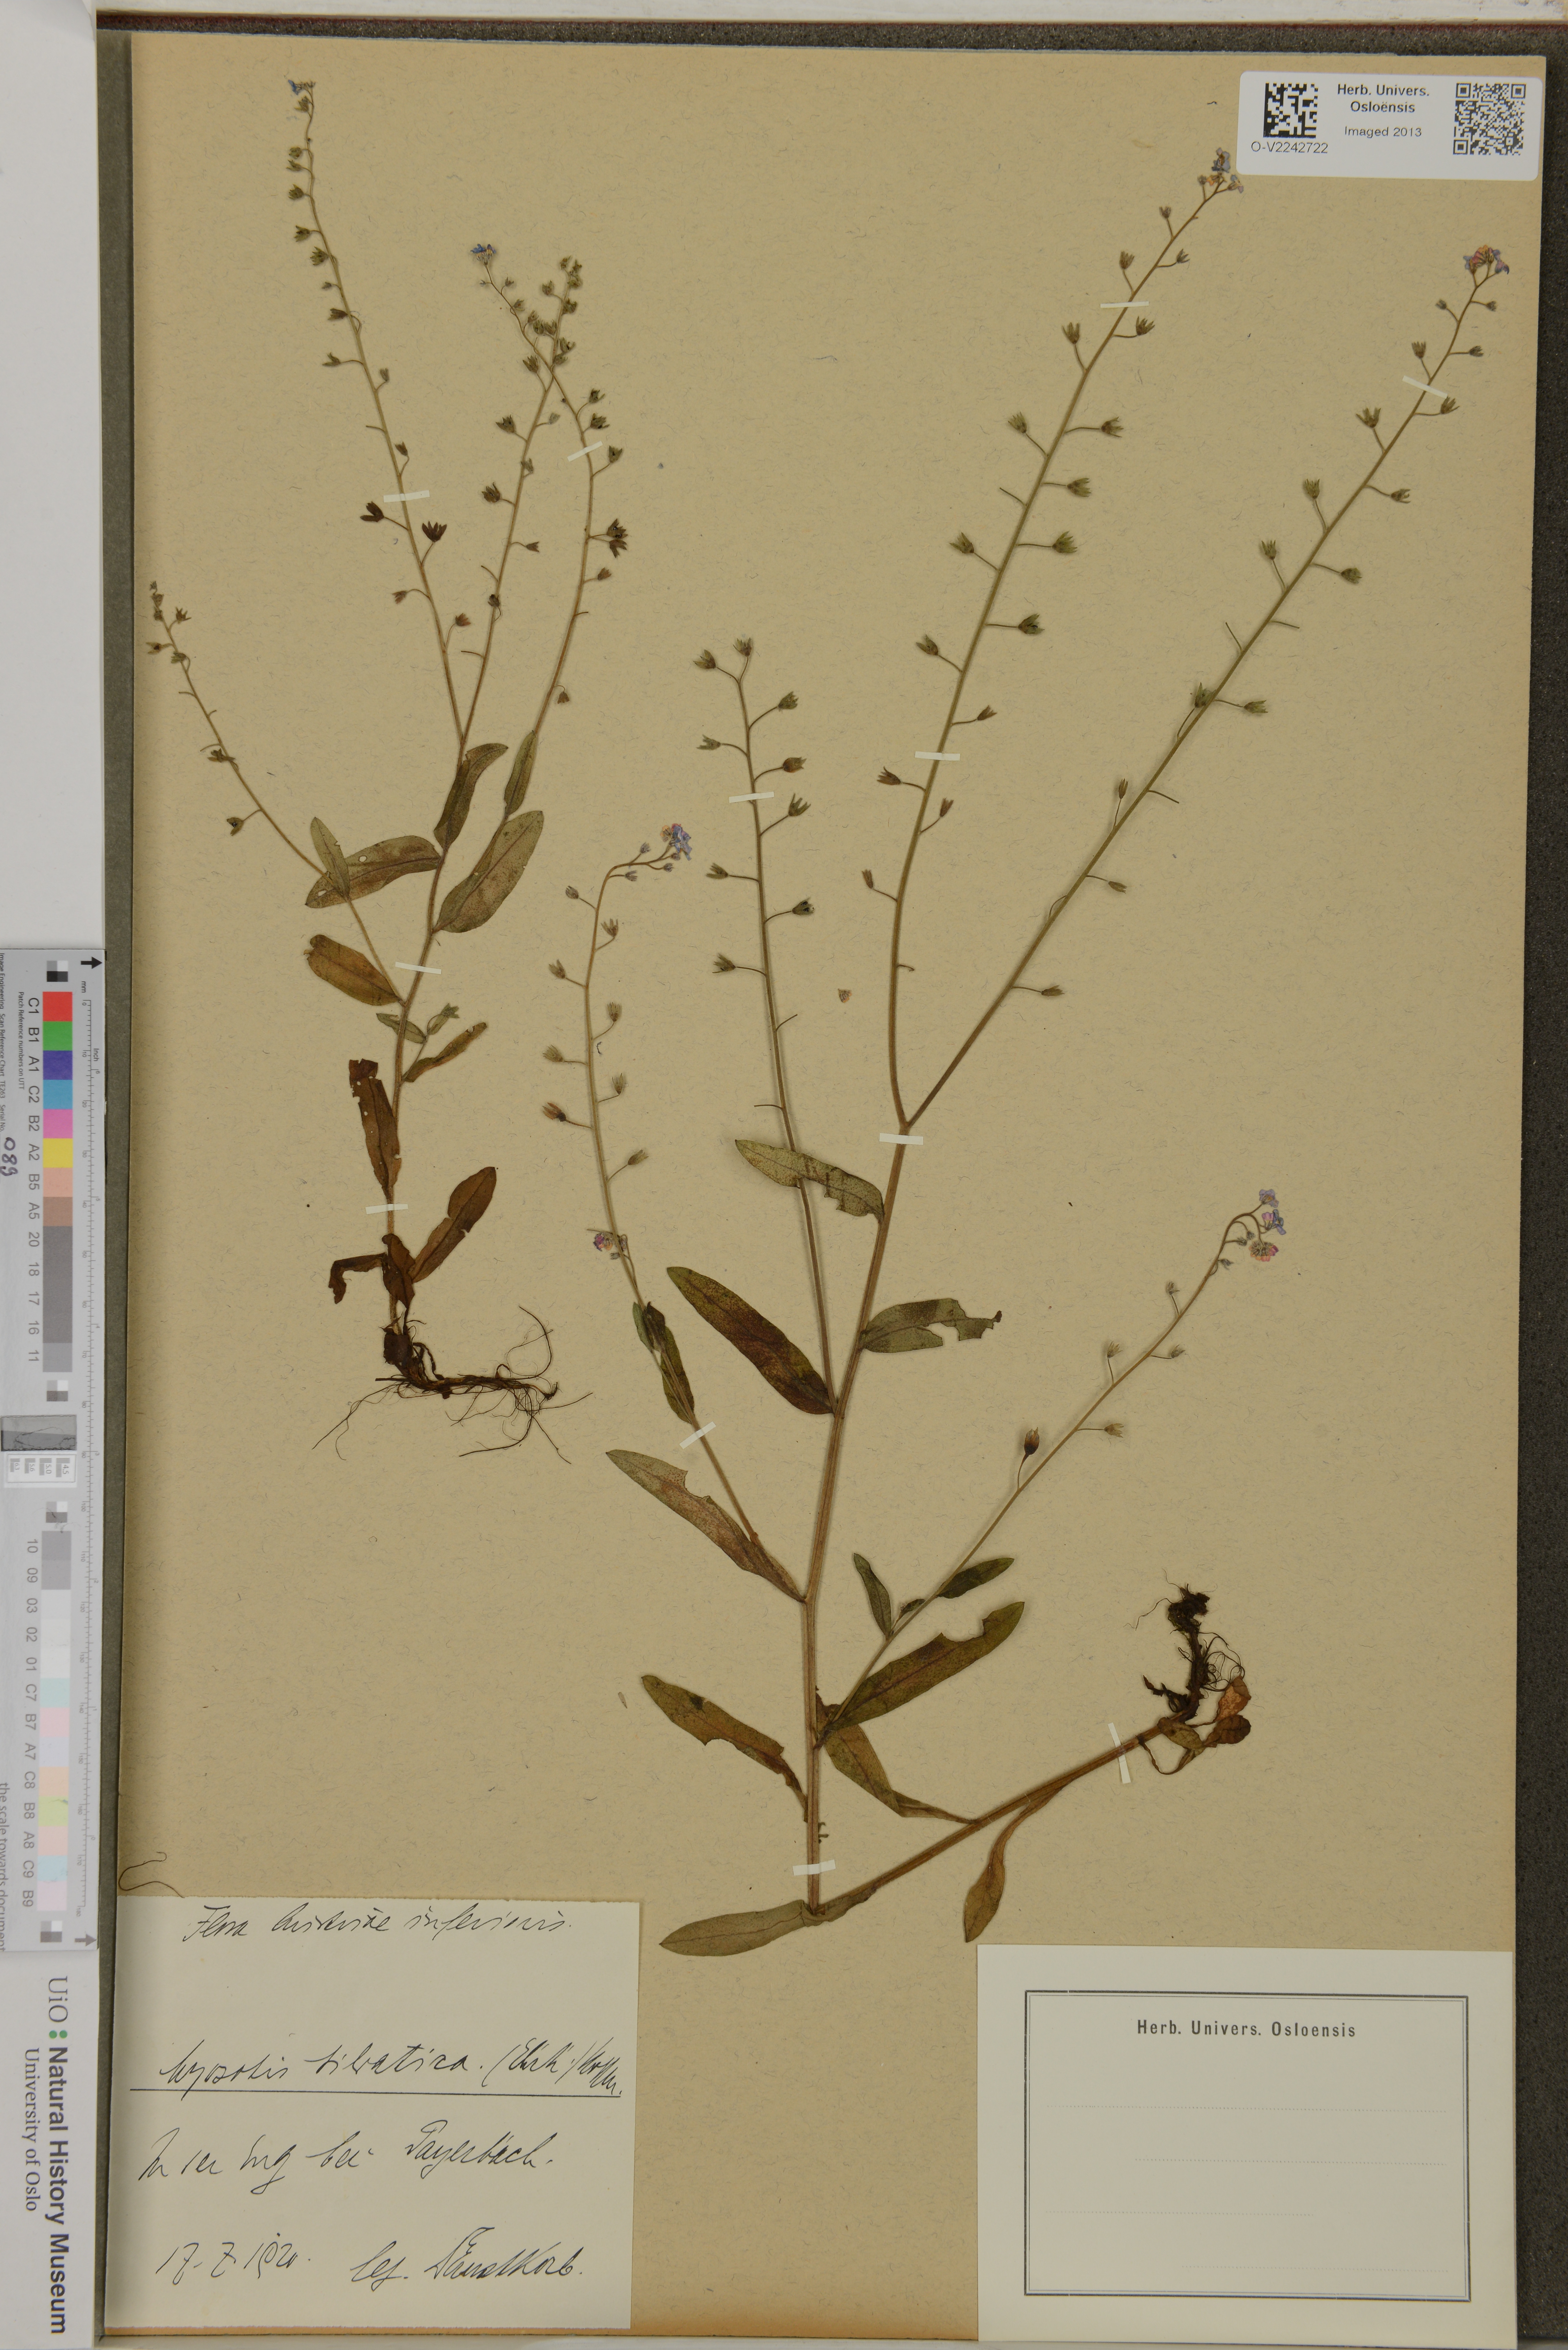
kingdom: Plantae
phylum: Tracheophyta
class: Magnoliopsida
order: Boraginales
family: Boraginaceae
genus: Myosotis
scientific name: Myosotis sylvatica
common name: Wood forget-me-not
